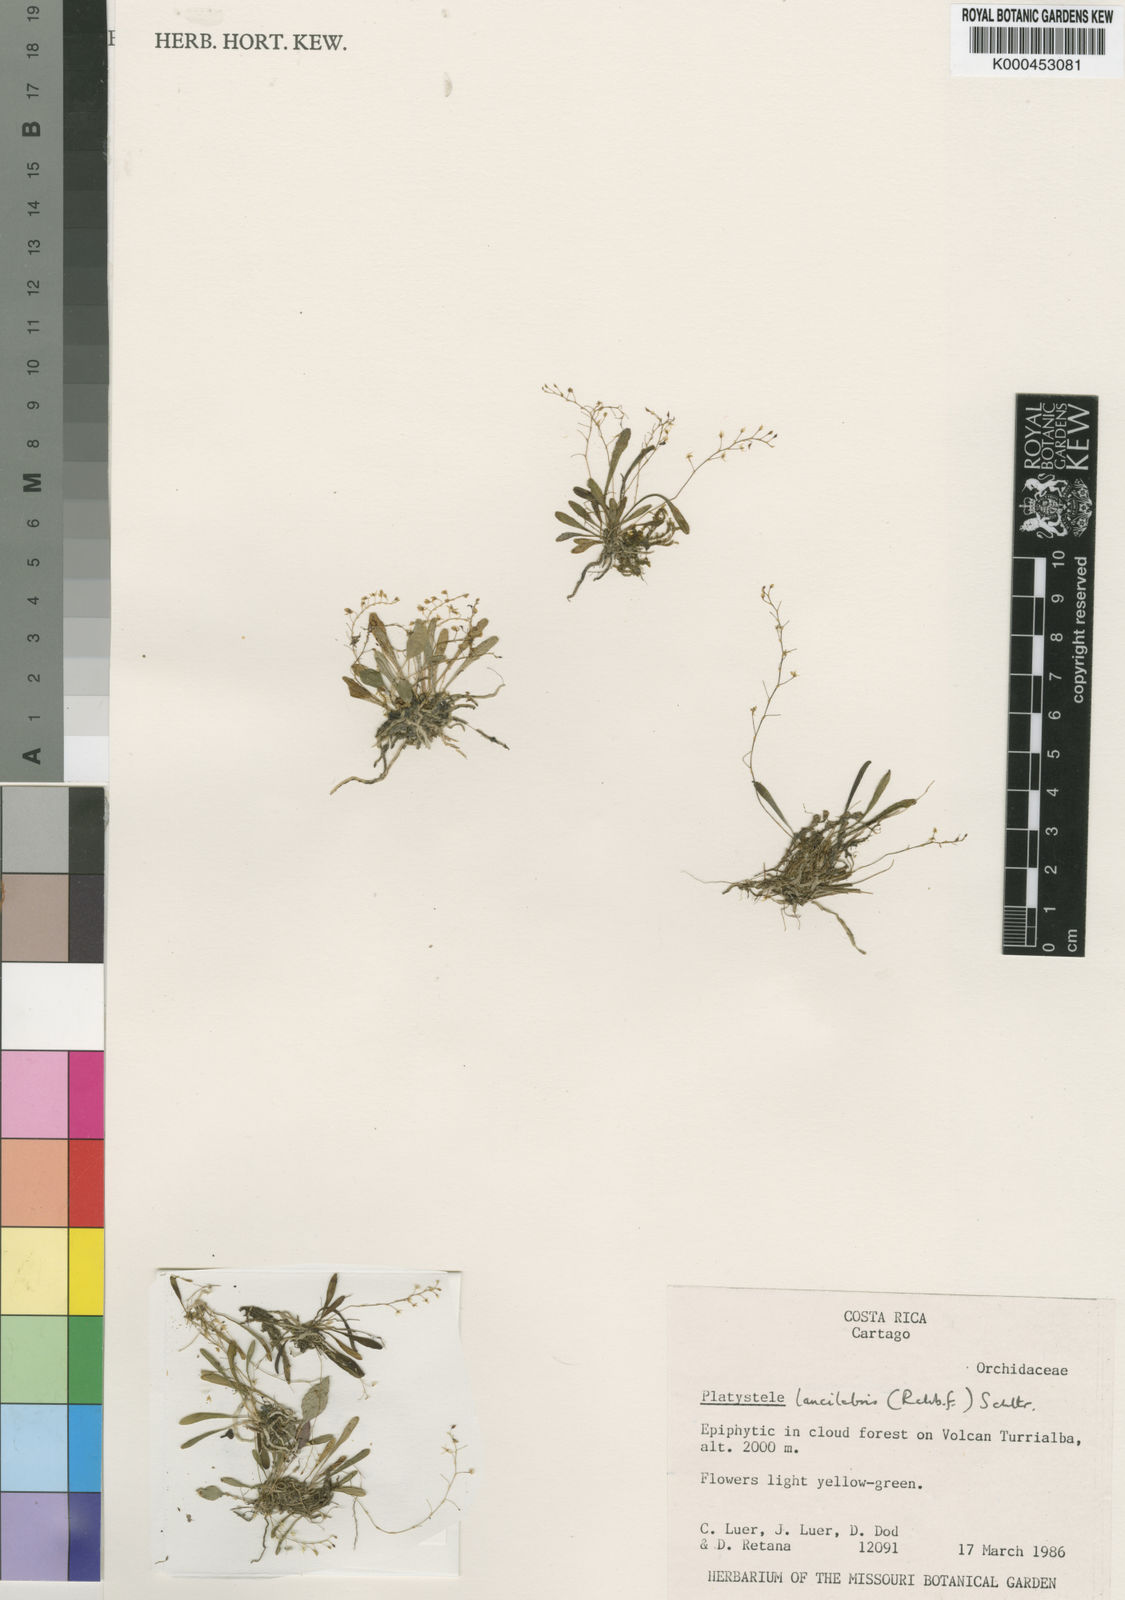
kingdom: Plantae
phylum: Tracheophyta
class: Liliopsida
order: Asparagales
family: Orchidaceae
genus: Platystele
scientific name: Platystele lancilabris
